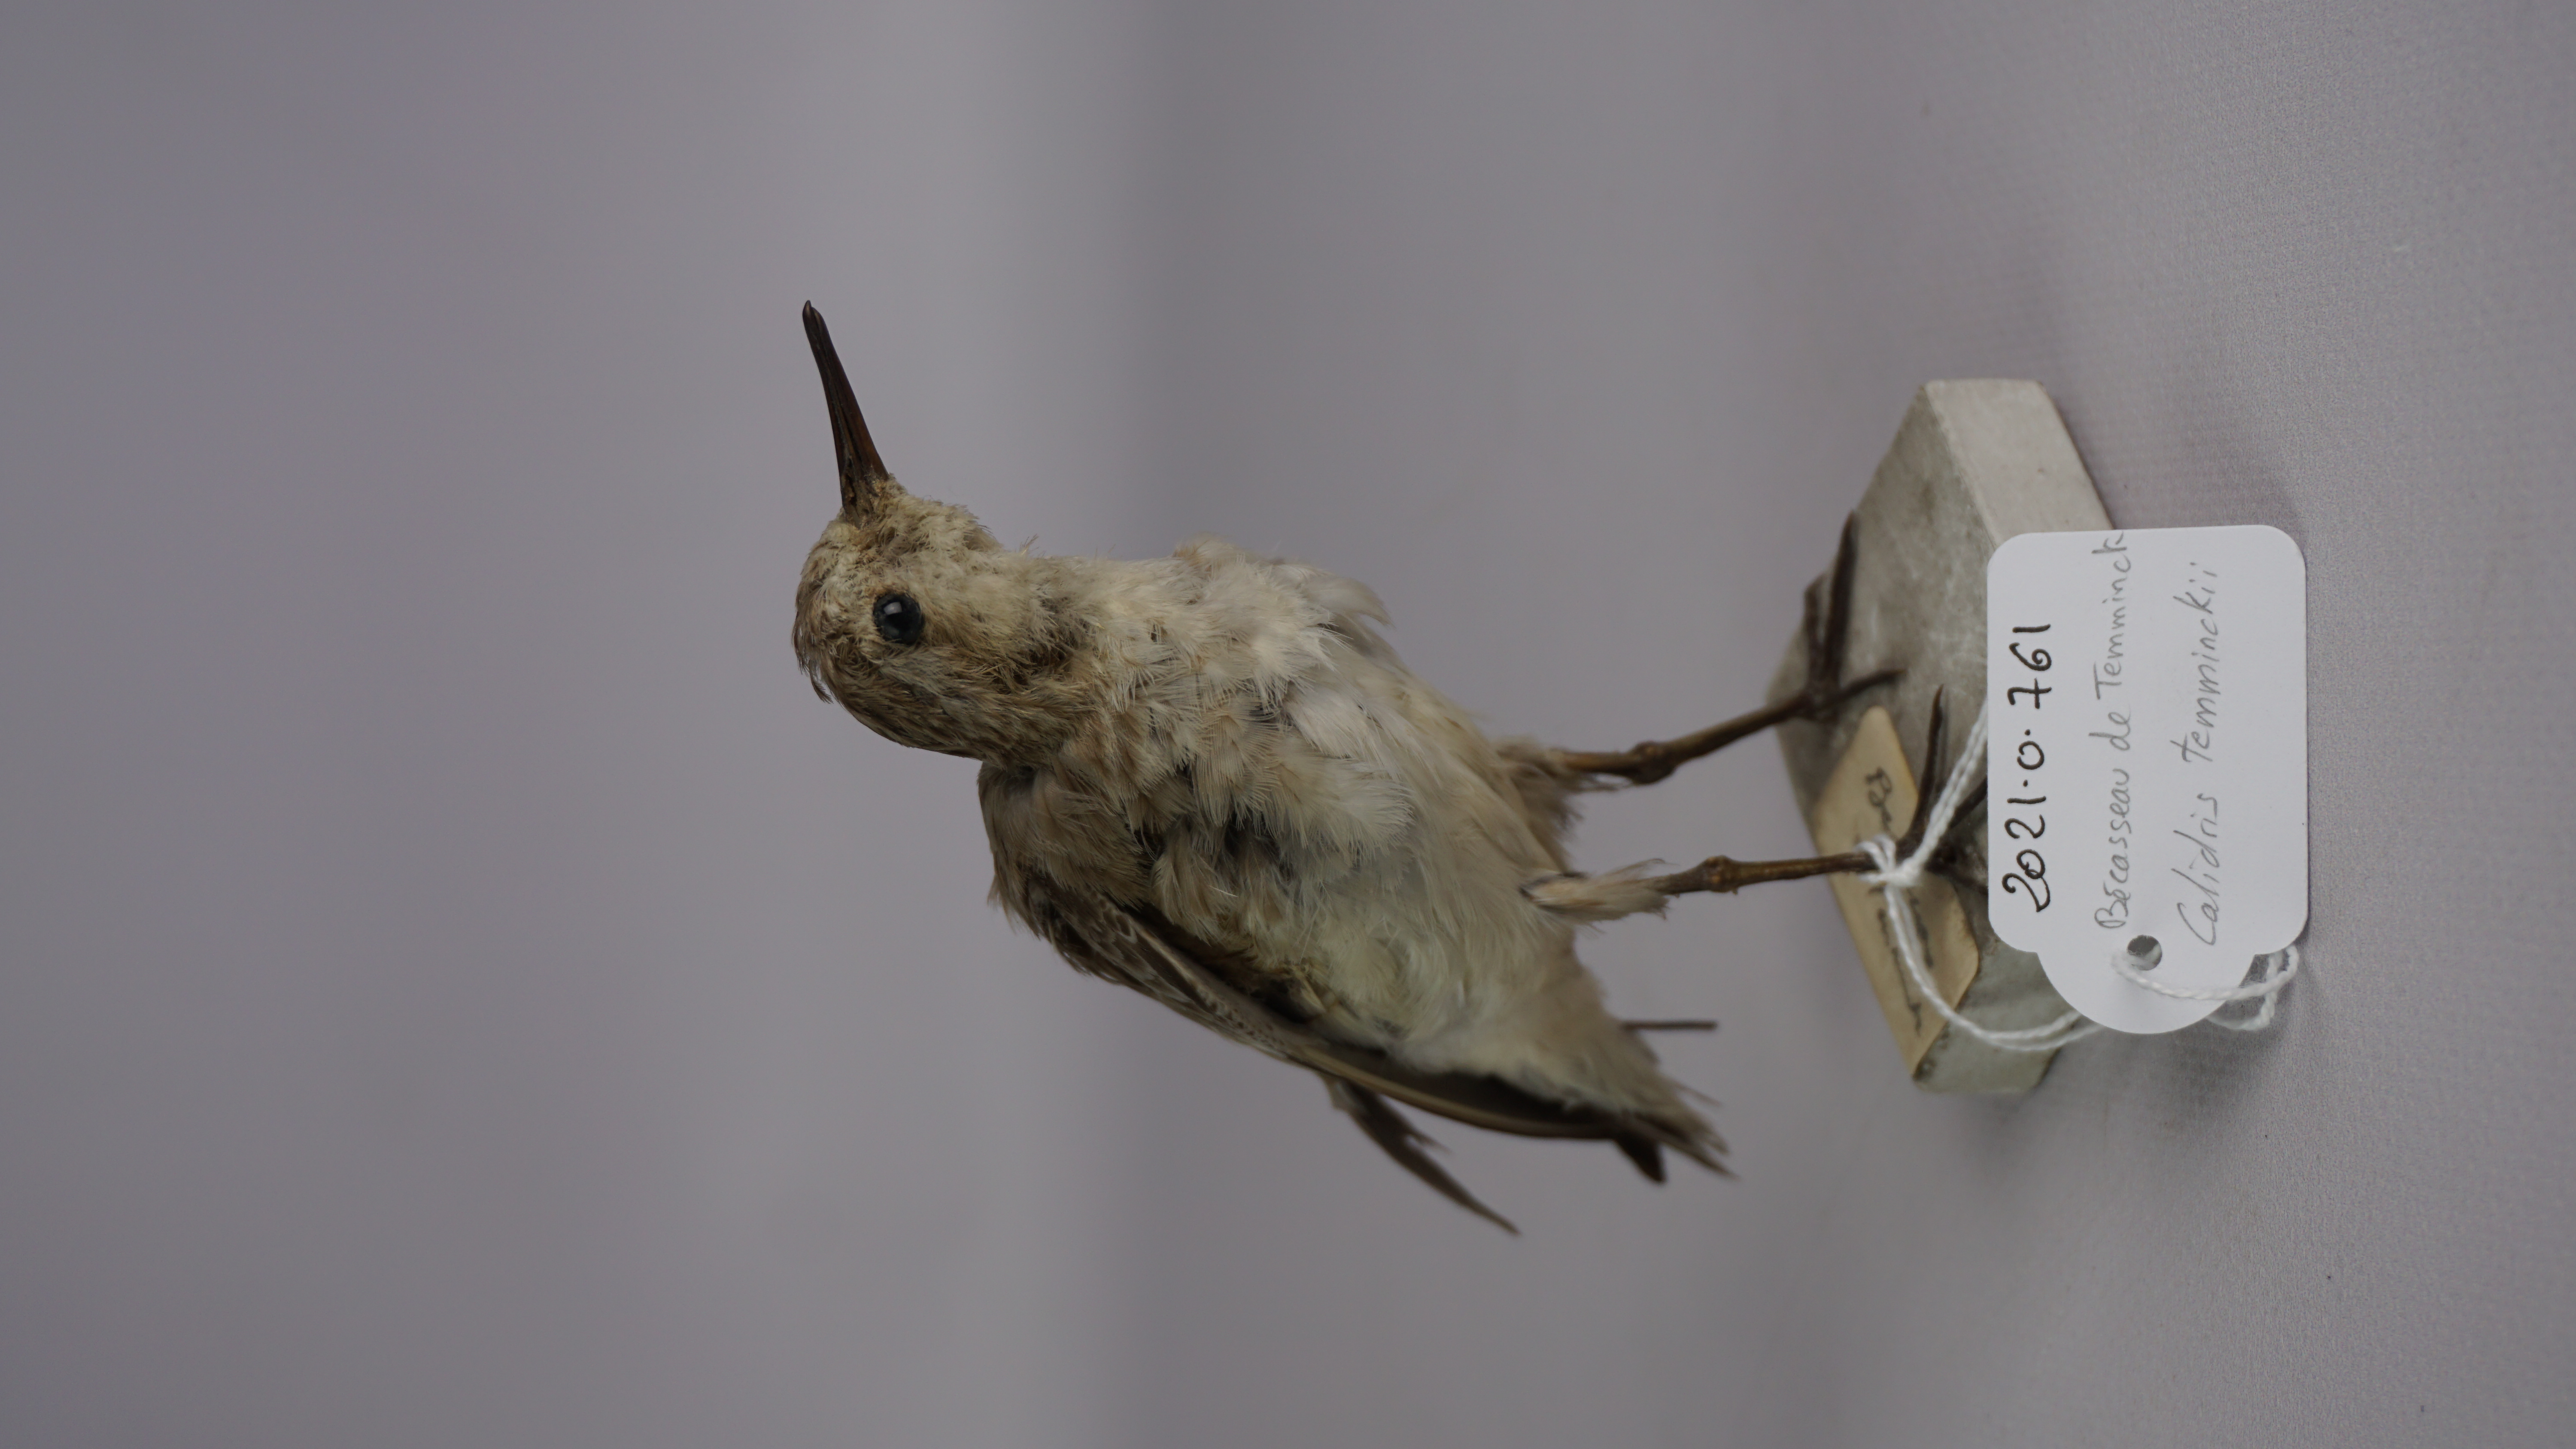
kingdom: Animalia
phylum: Chordata
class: Aves
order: Charadriiformes
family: Scolopacidae
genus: Calidris
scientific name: Calidris temminckii
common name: Temminck's stint
